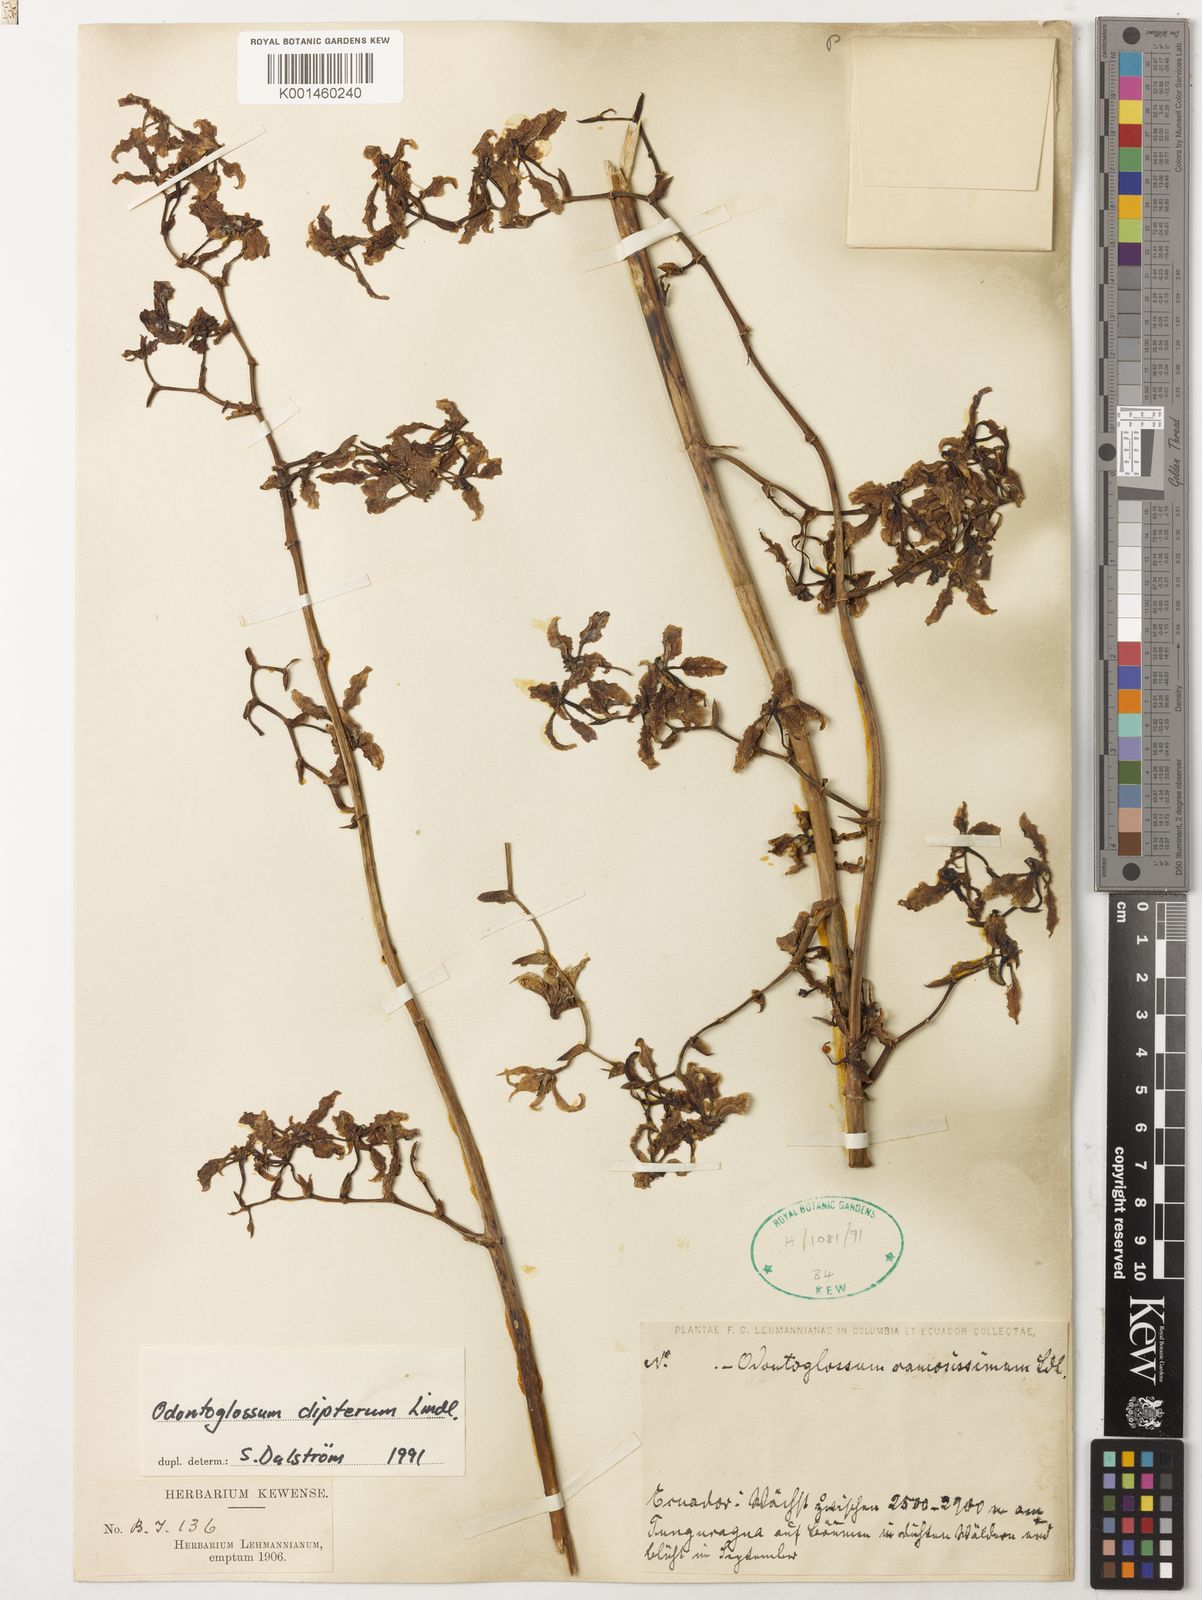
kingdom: Plantae
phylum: Tracheophyta
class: Liliopsida
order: Asparagales
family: Orchidaceae
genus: Cyrtochilum
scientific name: Cyrtochilum
